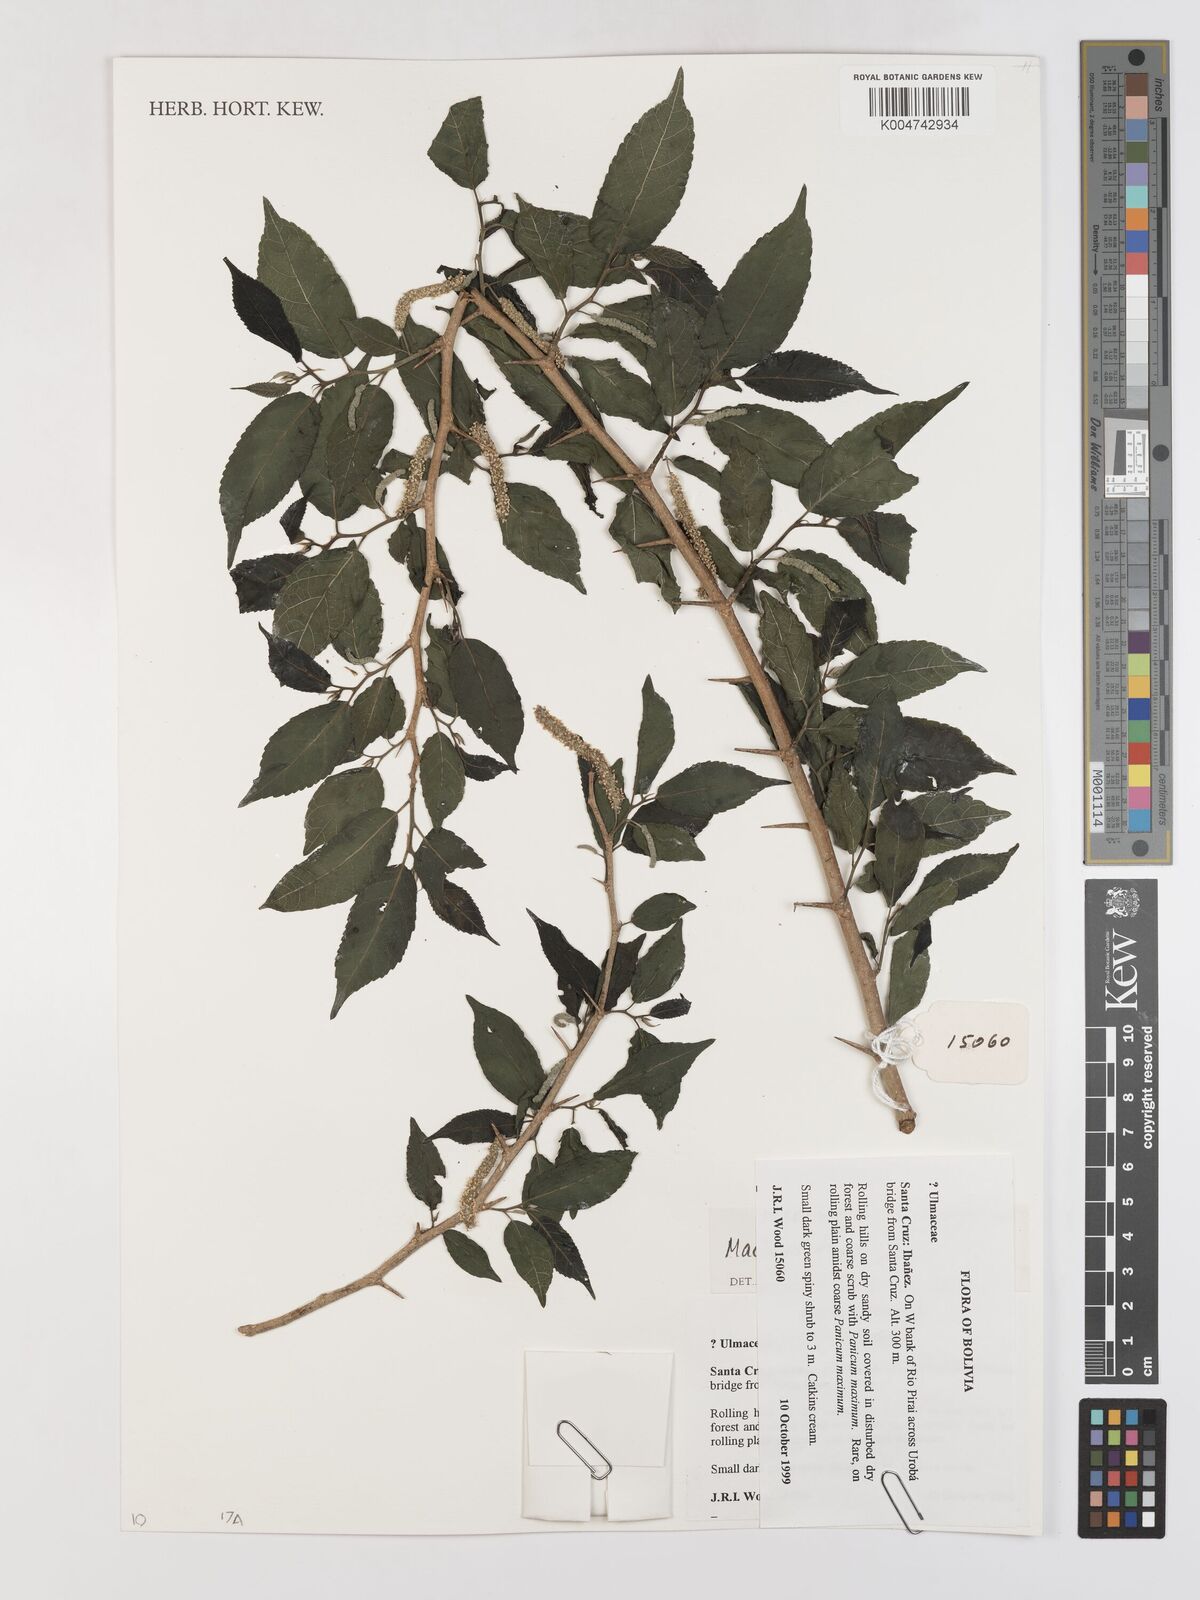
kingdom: Plantae
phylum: Tracheophyta
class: Magnoliopsida
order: Rosales
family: Moraceae
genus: Maclura
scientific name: Maclura tinctoria
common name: Old fustic
